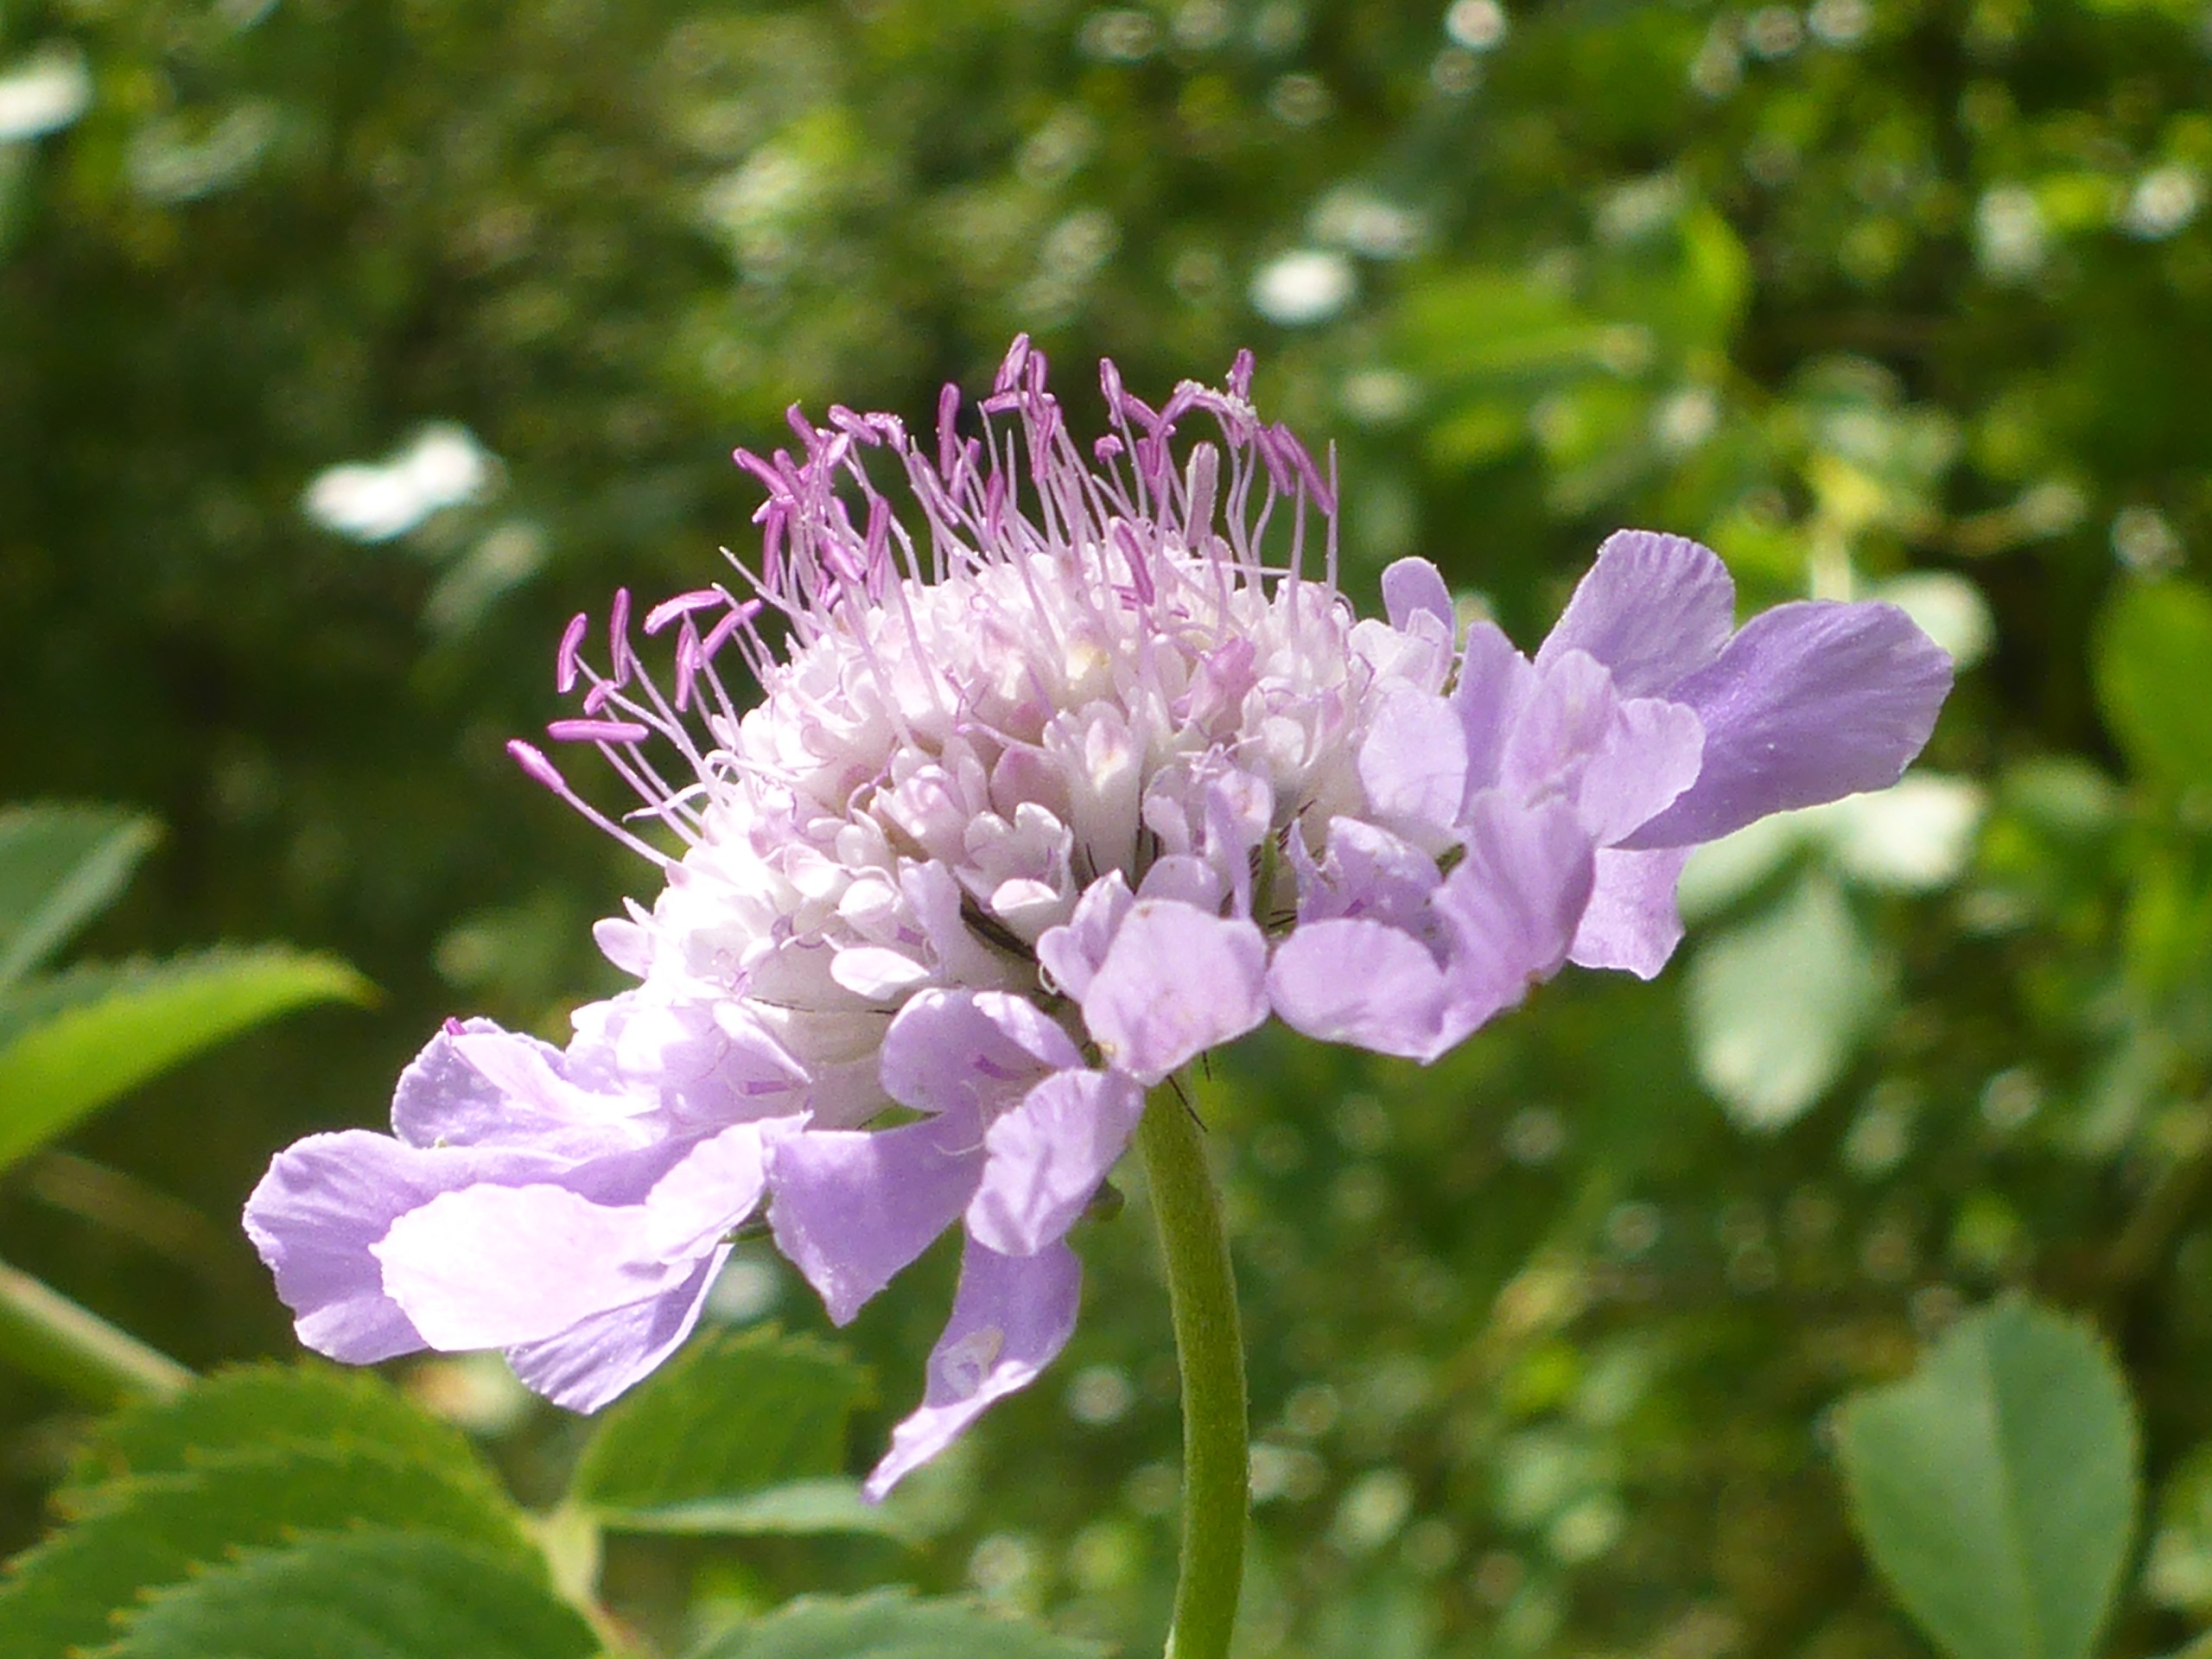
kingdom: Plantae
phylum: Tracheophyta
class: Magnoliopsida
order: Dipsacales
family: Caprifoliaceae
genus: Scabiosa
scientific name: Scabiosa columbaria
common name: Due-skabiose
